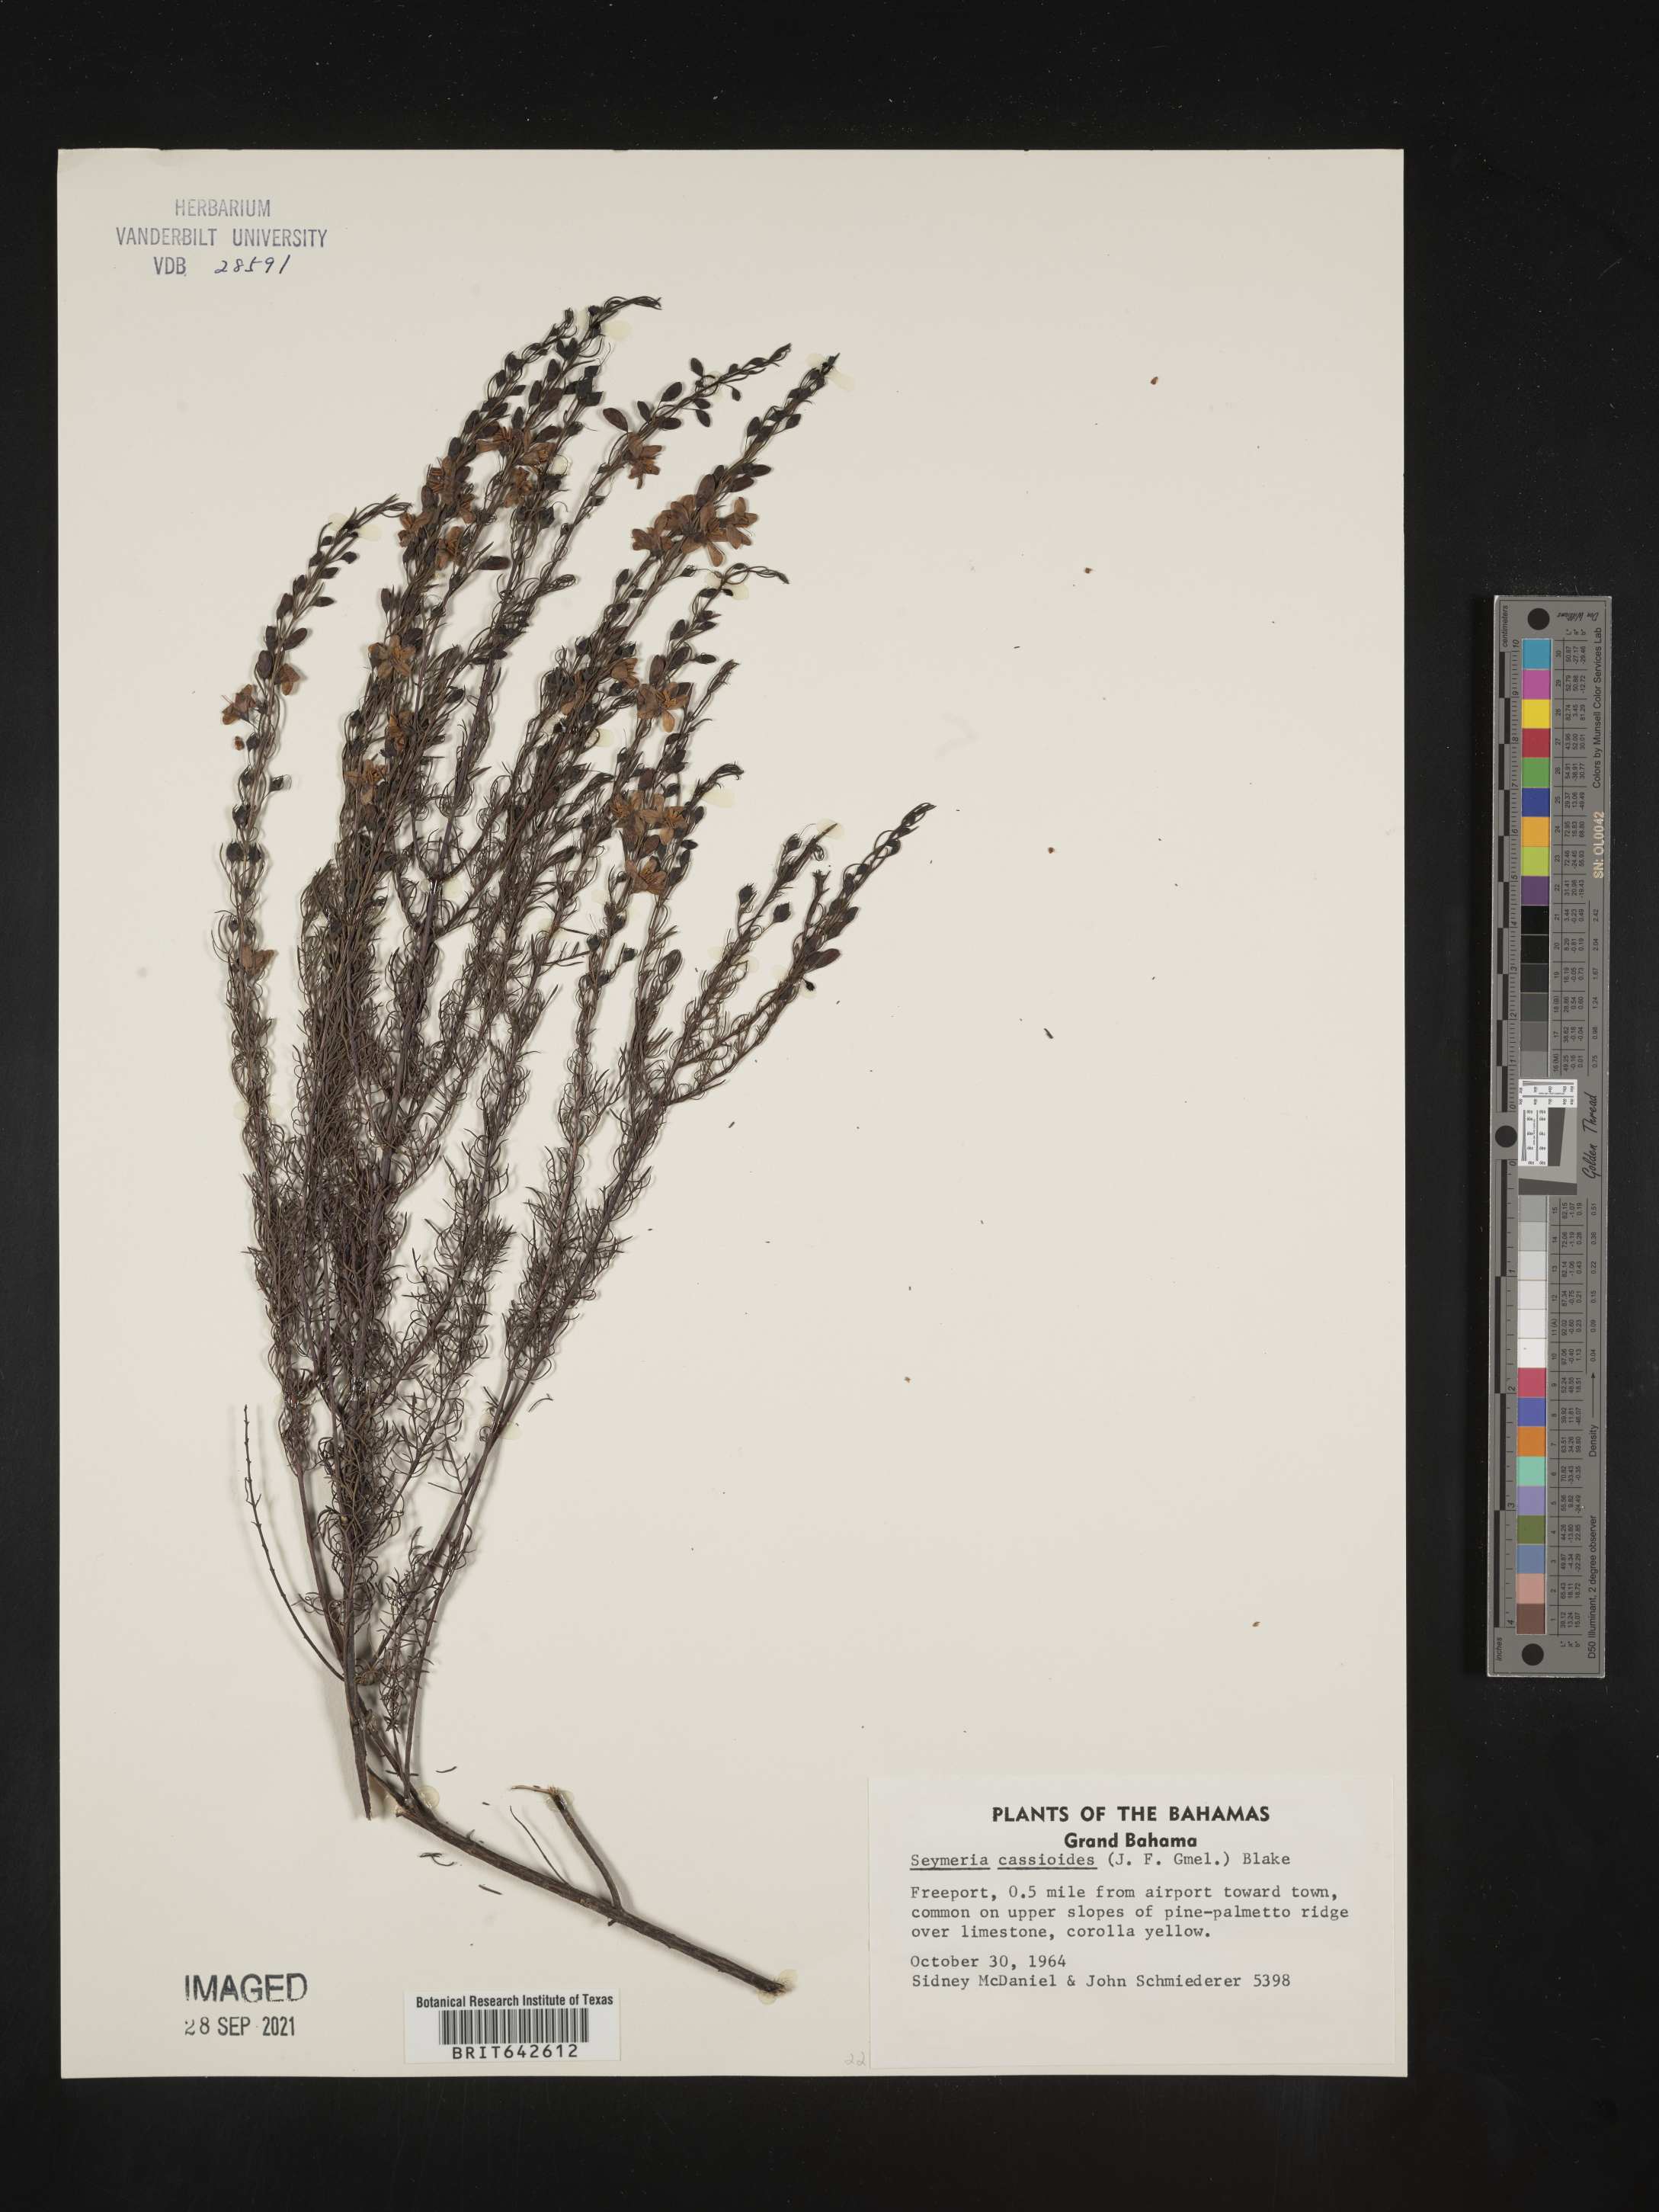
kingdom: Plantae
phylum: Tracheophyta
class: Magnoliopsida
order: Lamiales
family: Orobanchaceae
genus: Seymeria
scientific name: Seymeria
